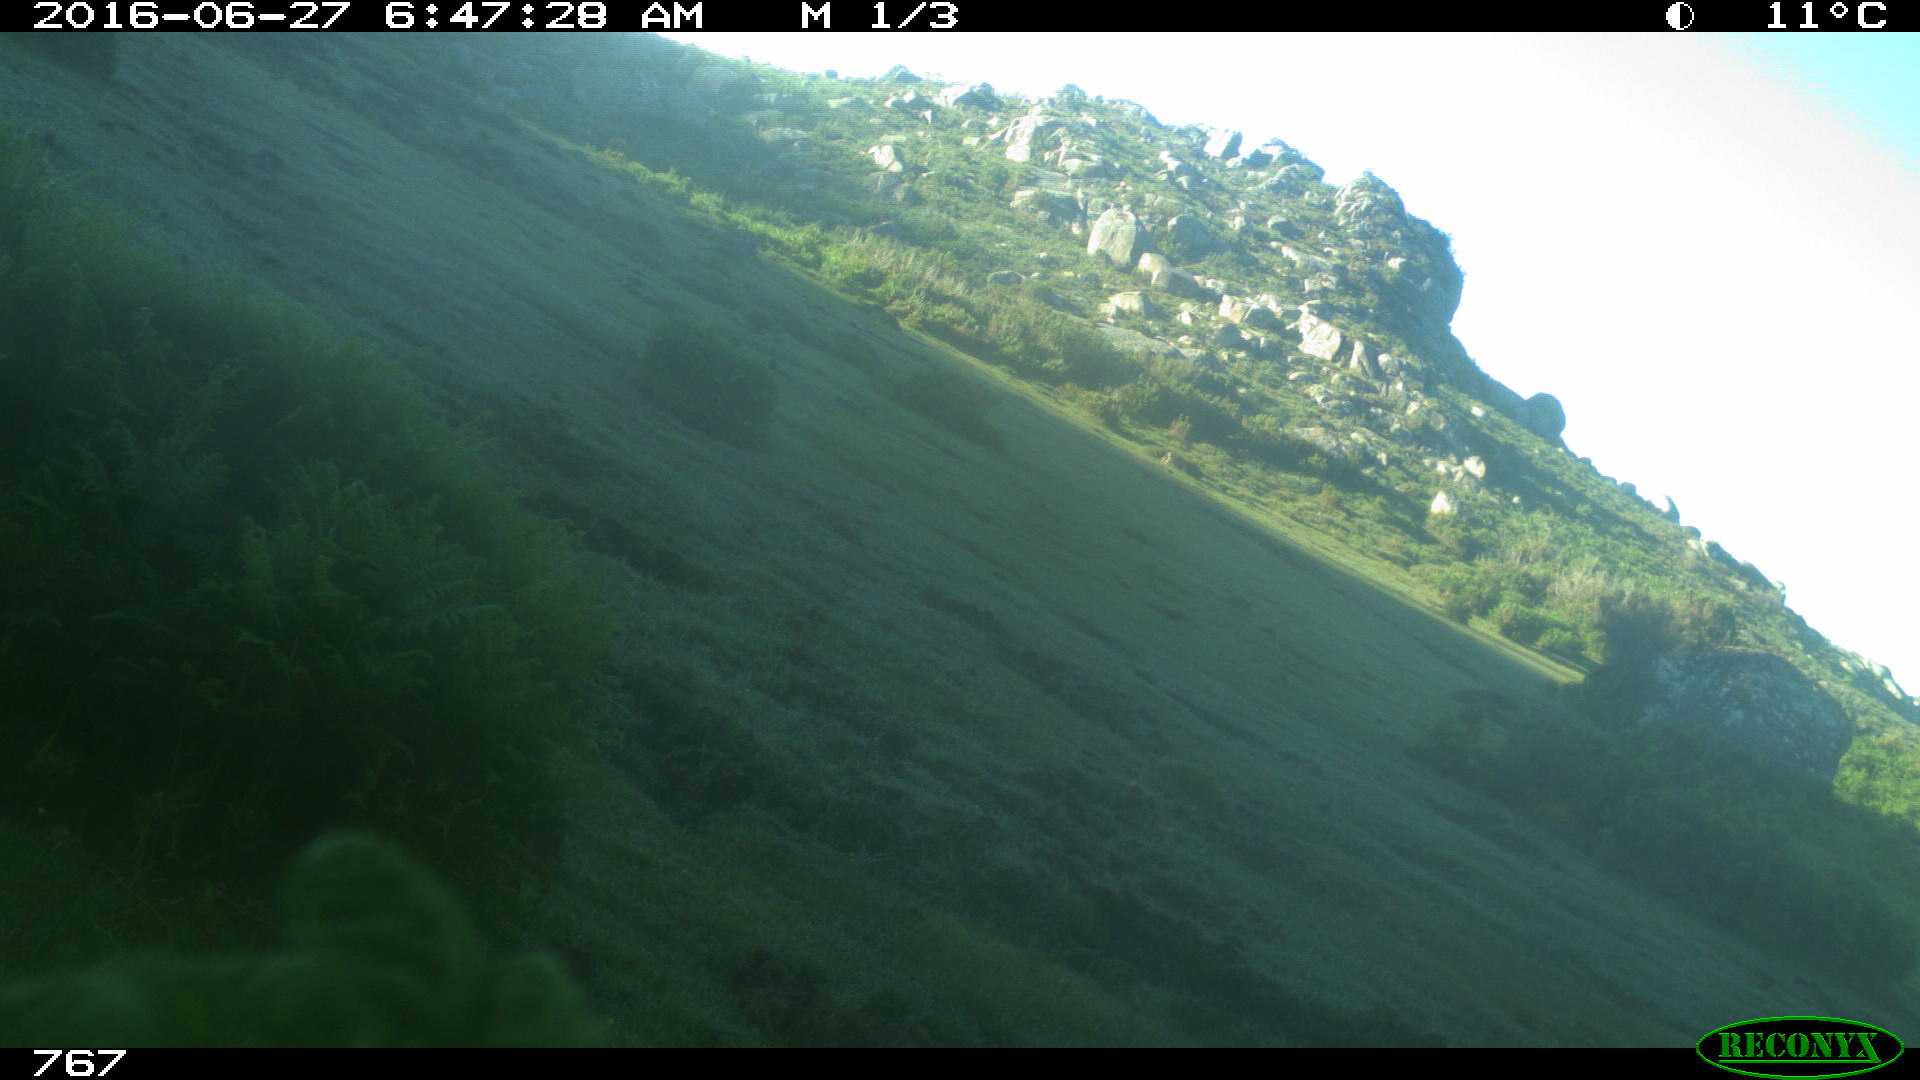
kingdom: Animalia
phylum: Chordata
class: Mammalia
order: Artiodactyla
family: Bovidae
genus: Bos
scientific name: Bos taurus
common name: Domesticated cattle
